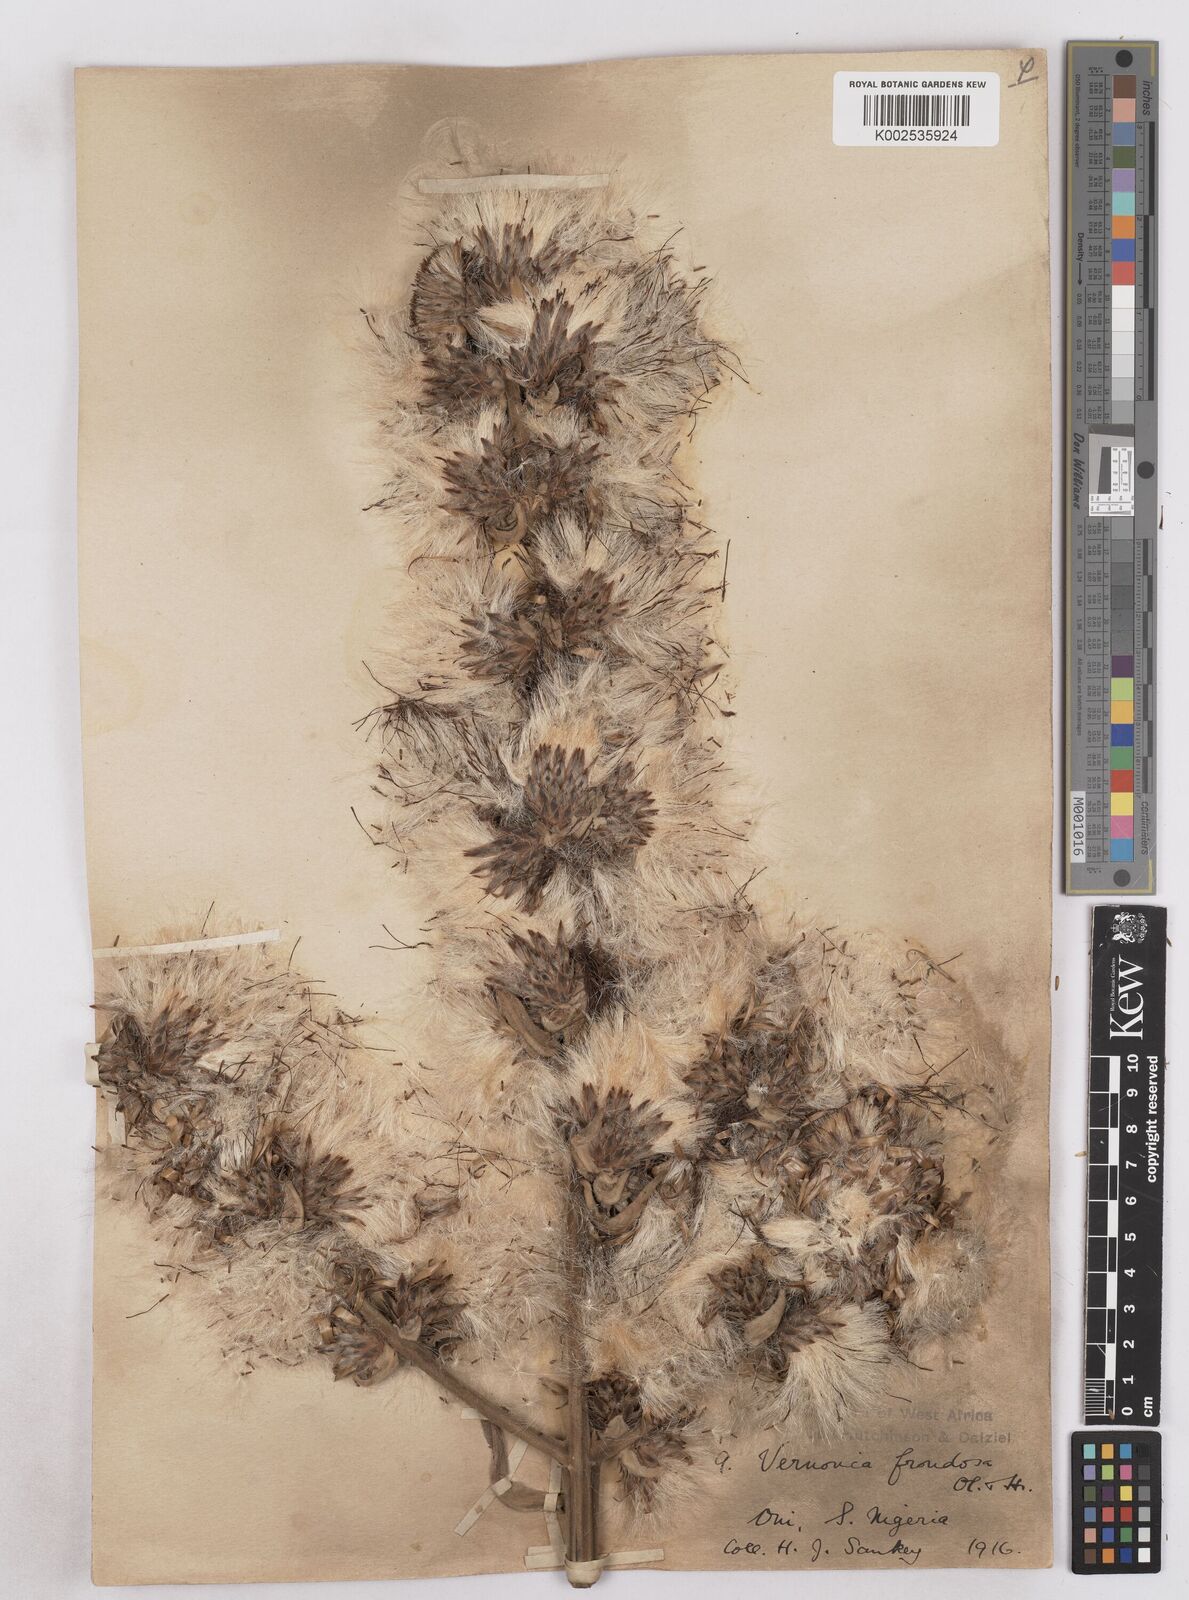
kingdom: Plantae
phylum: Tracheophyta
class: Magnoliopsida
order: Asterales
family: Asteraceae
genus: Brenandendron
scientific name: Brenandendron frondosum
